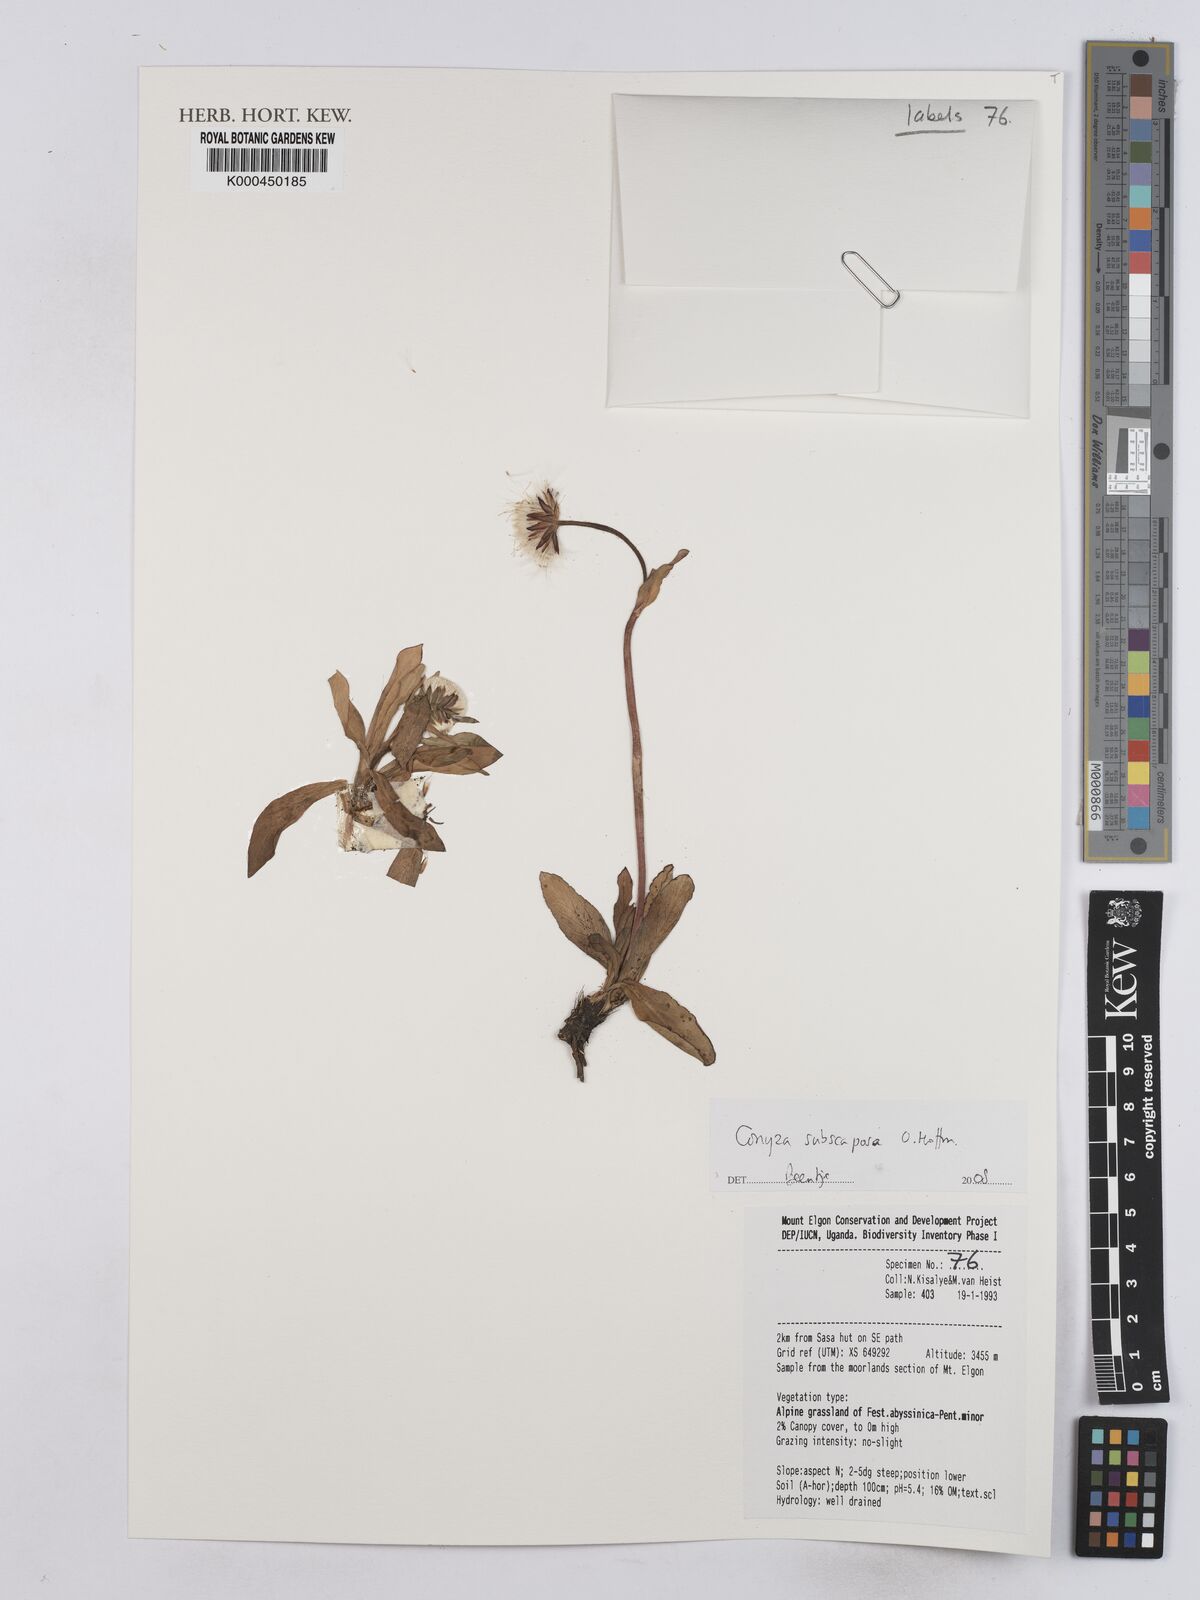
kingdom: Plantae
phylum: Tracheophyta
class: Magnoliopsida
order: Asterales
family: Asteraceae
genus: Eschenbachia
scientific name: Eschenbachia subscaposa
